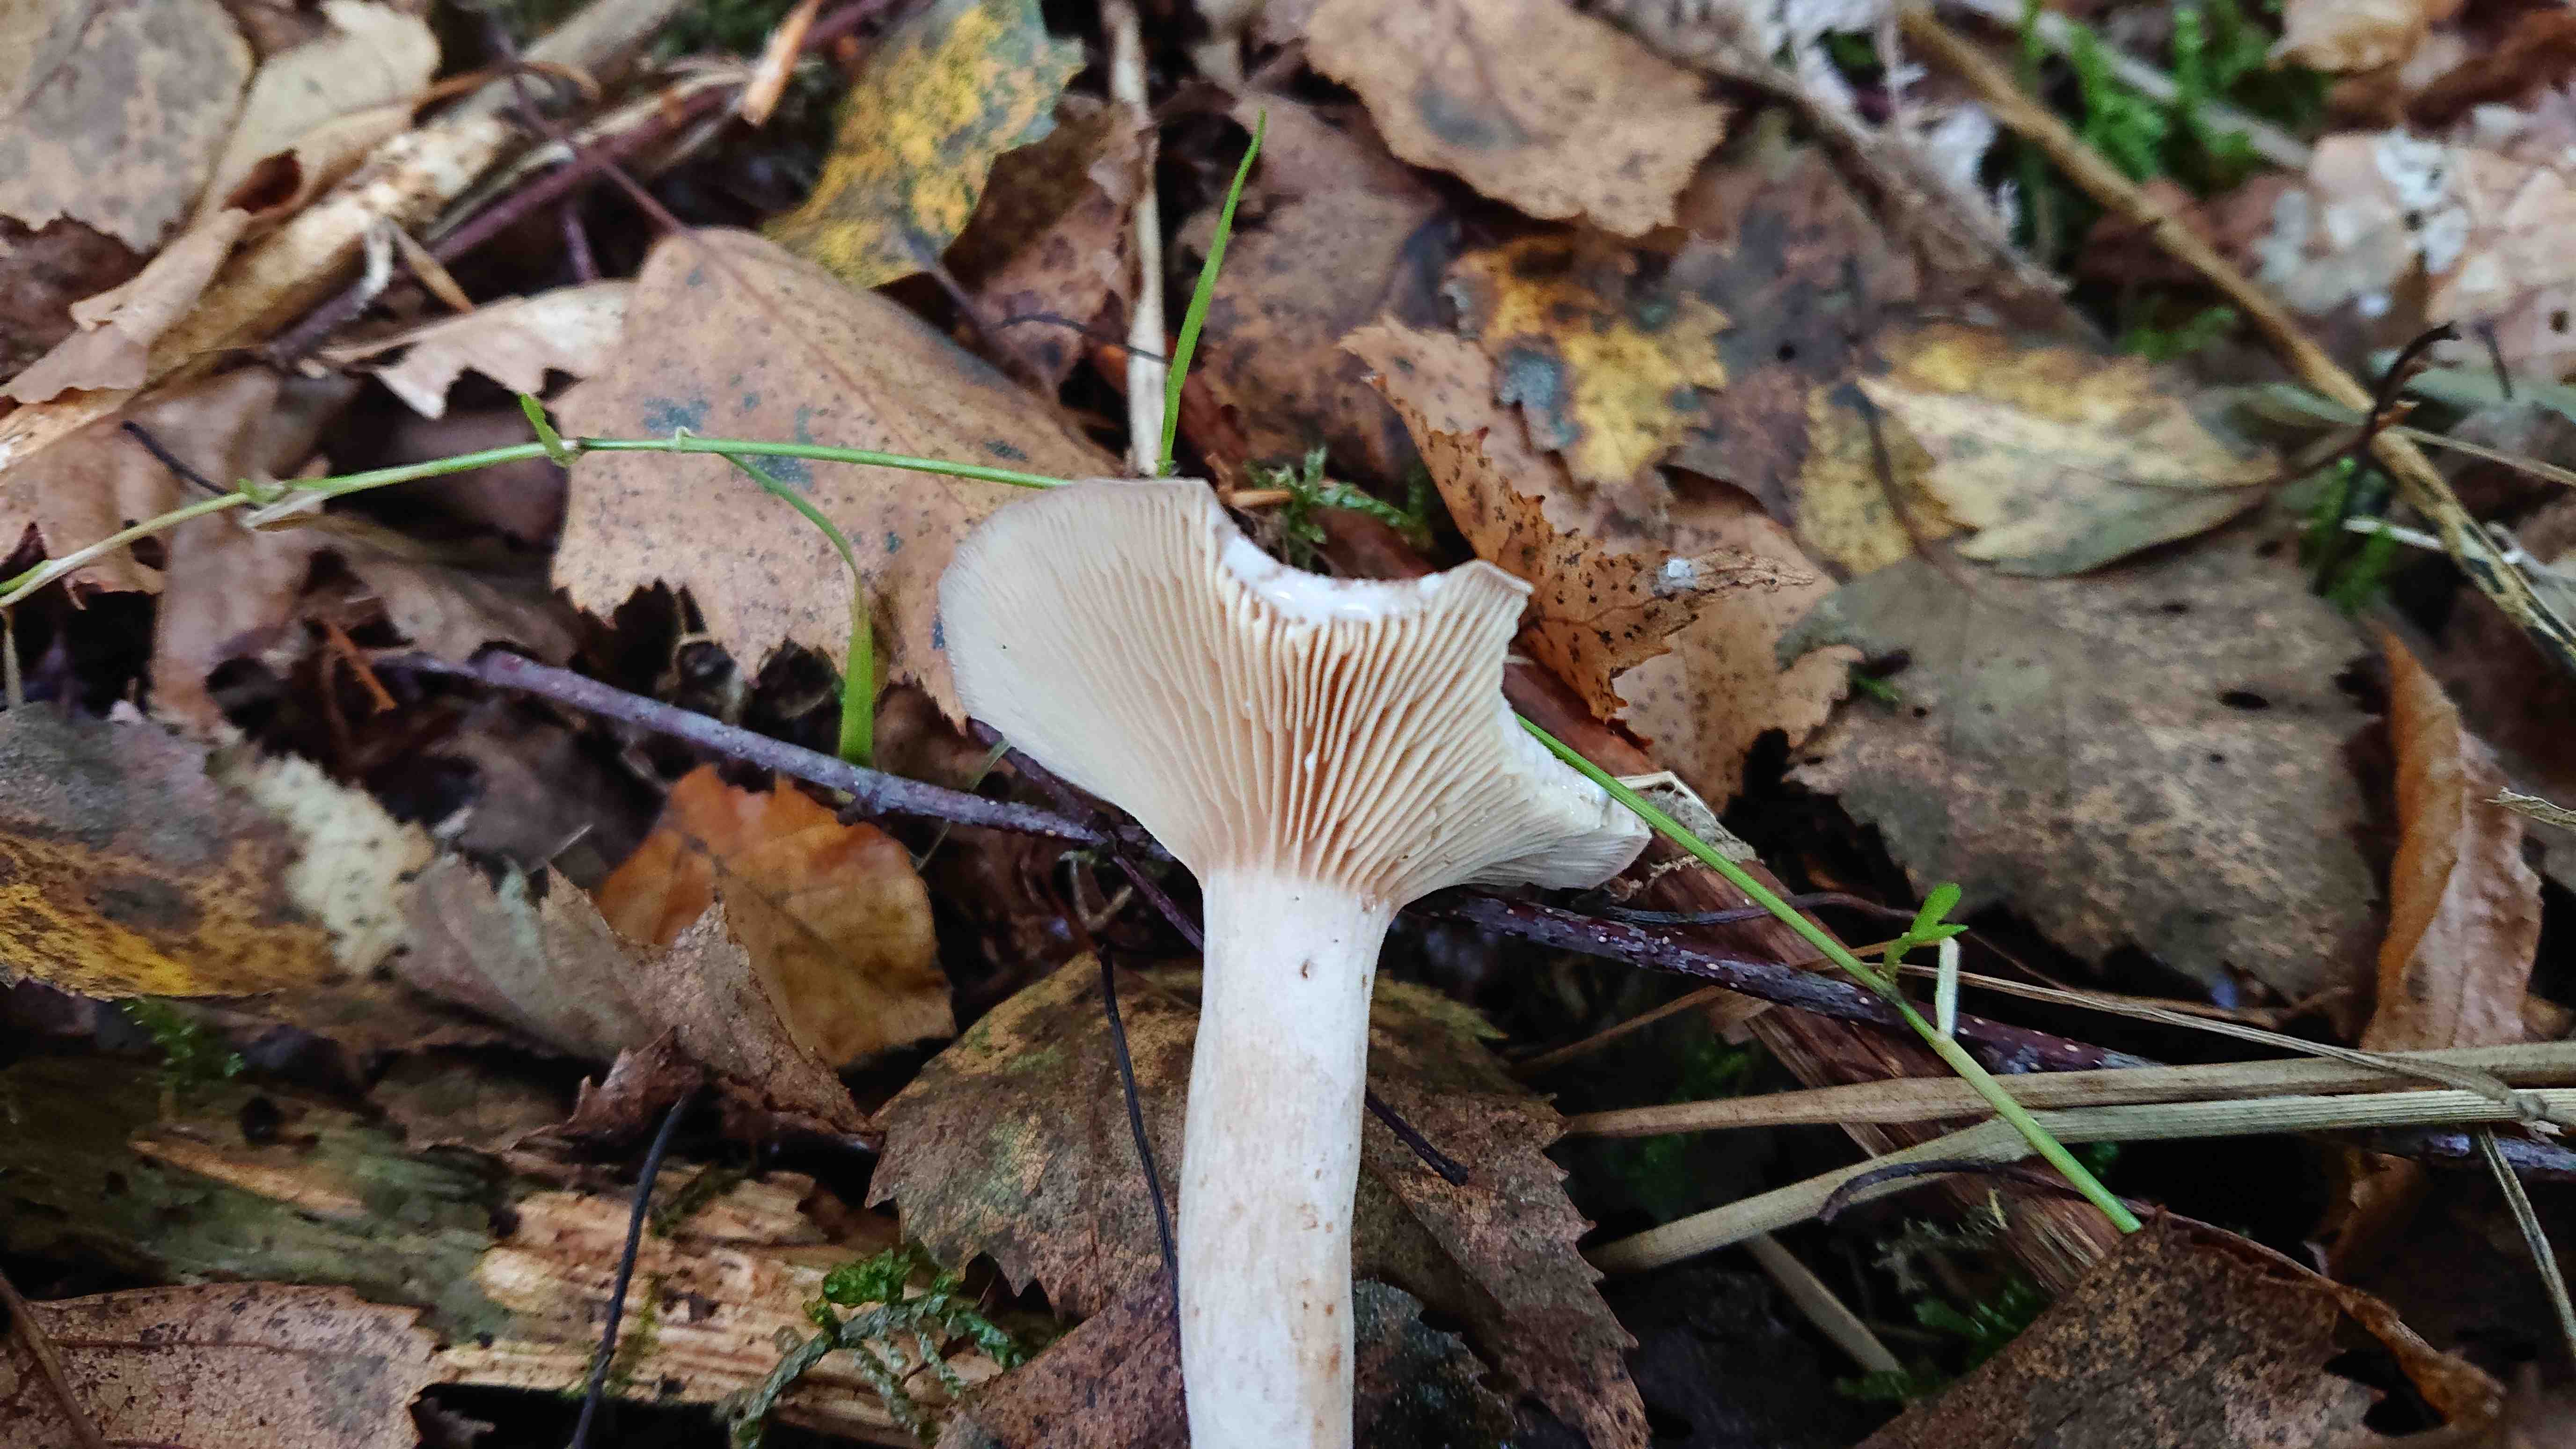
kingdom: Fungi
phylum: Basidiomycota
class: Agaricomycetes
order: Russulales
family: Russulaceae
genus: Lactarius
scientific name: Lactarius glyciosmus
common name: kokos-mælkehat
